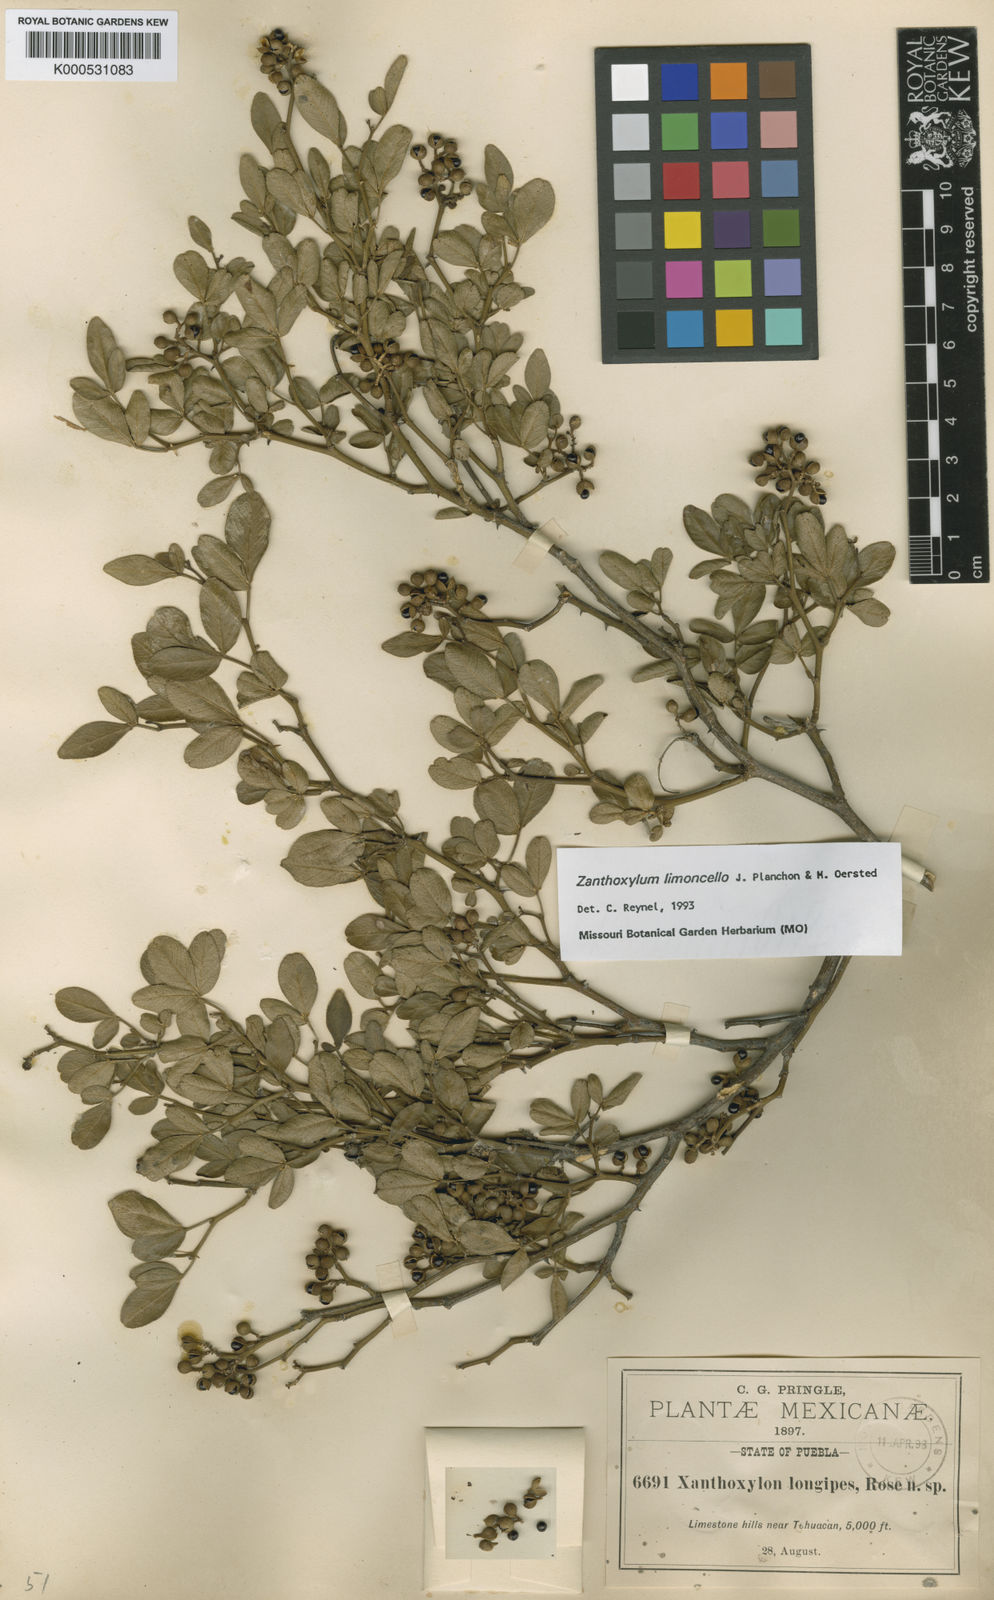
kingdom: Plantae
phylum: Tracheophyta
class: Magnoliopsida
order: Sapindales
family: Rutaceae
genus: Zanthoxylum
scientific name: Zanthoxylum limoncello
